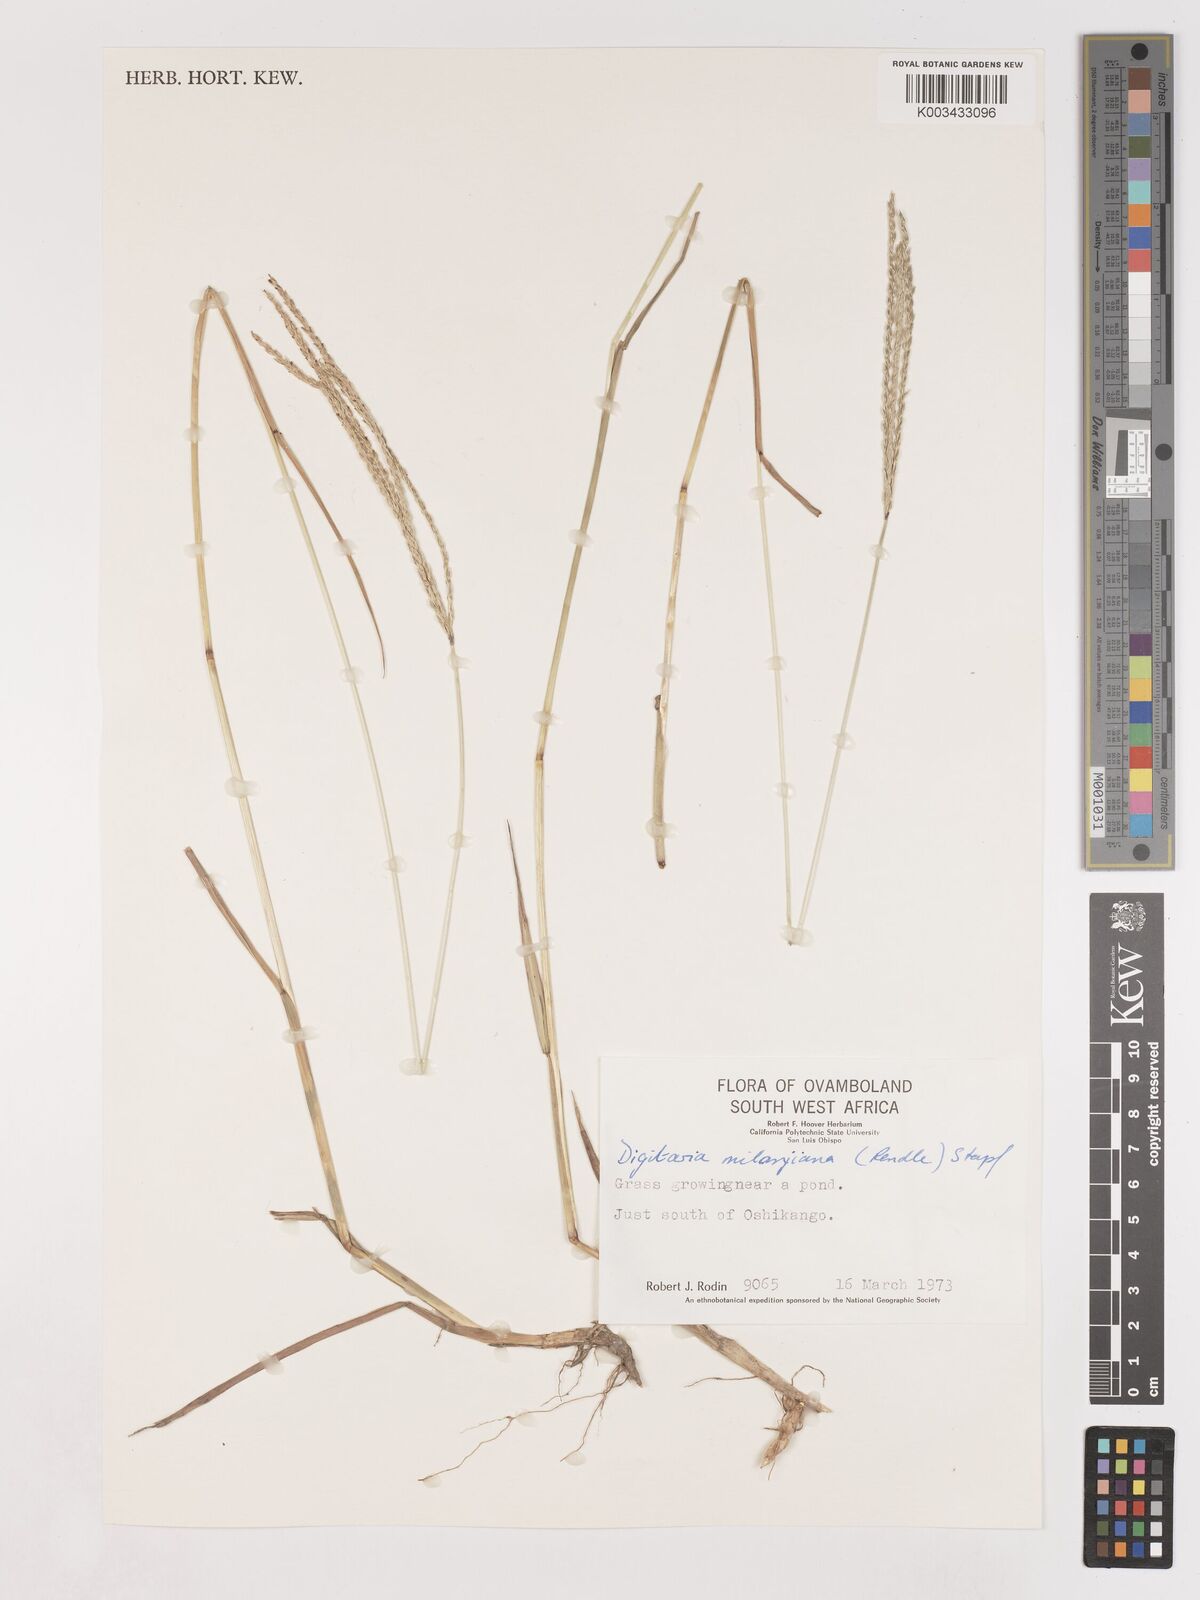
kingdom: Plantae
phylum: Tracheophyta
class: Liliopsida
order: Poales
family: Poaceae
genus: Digitaria
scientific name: Digitaria milanjiana
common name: Madagascar crabgrass
